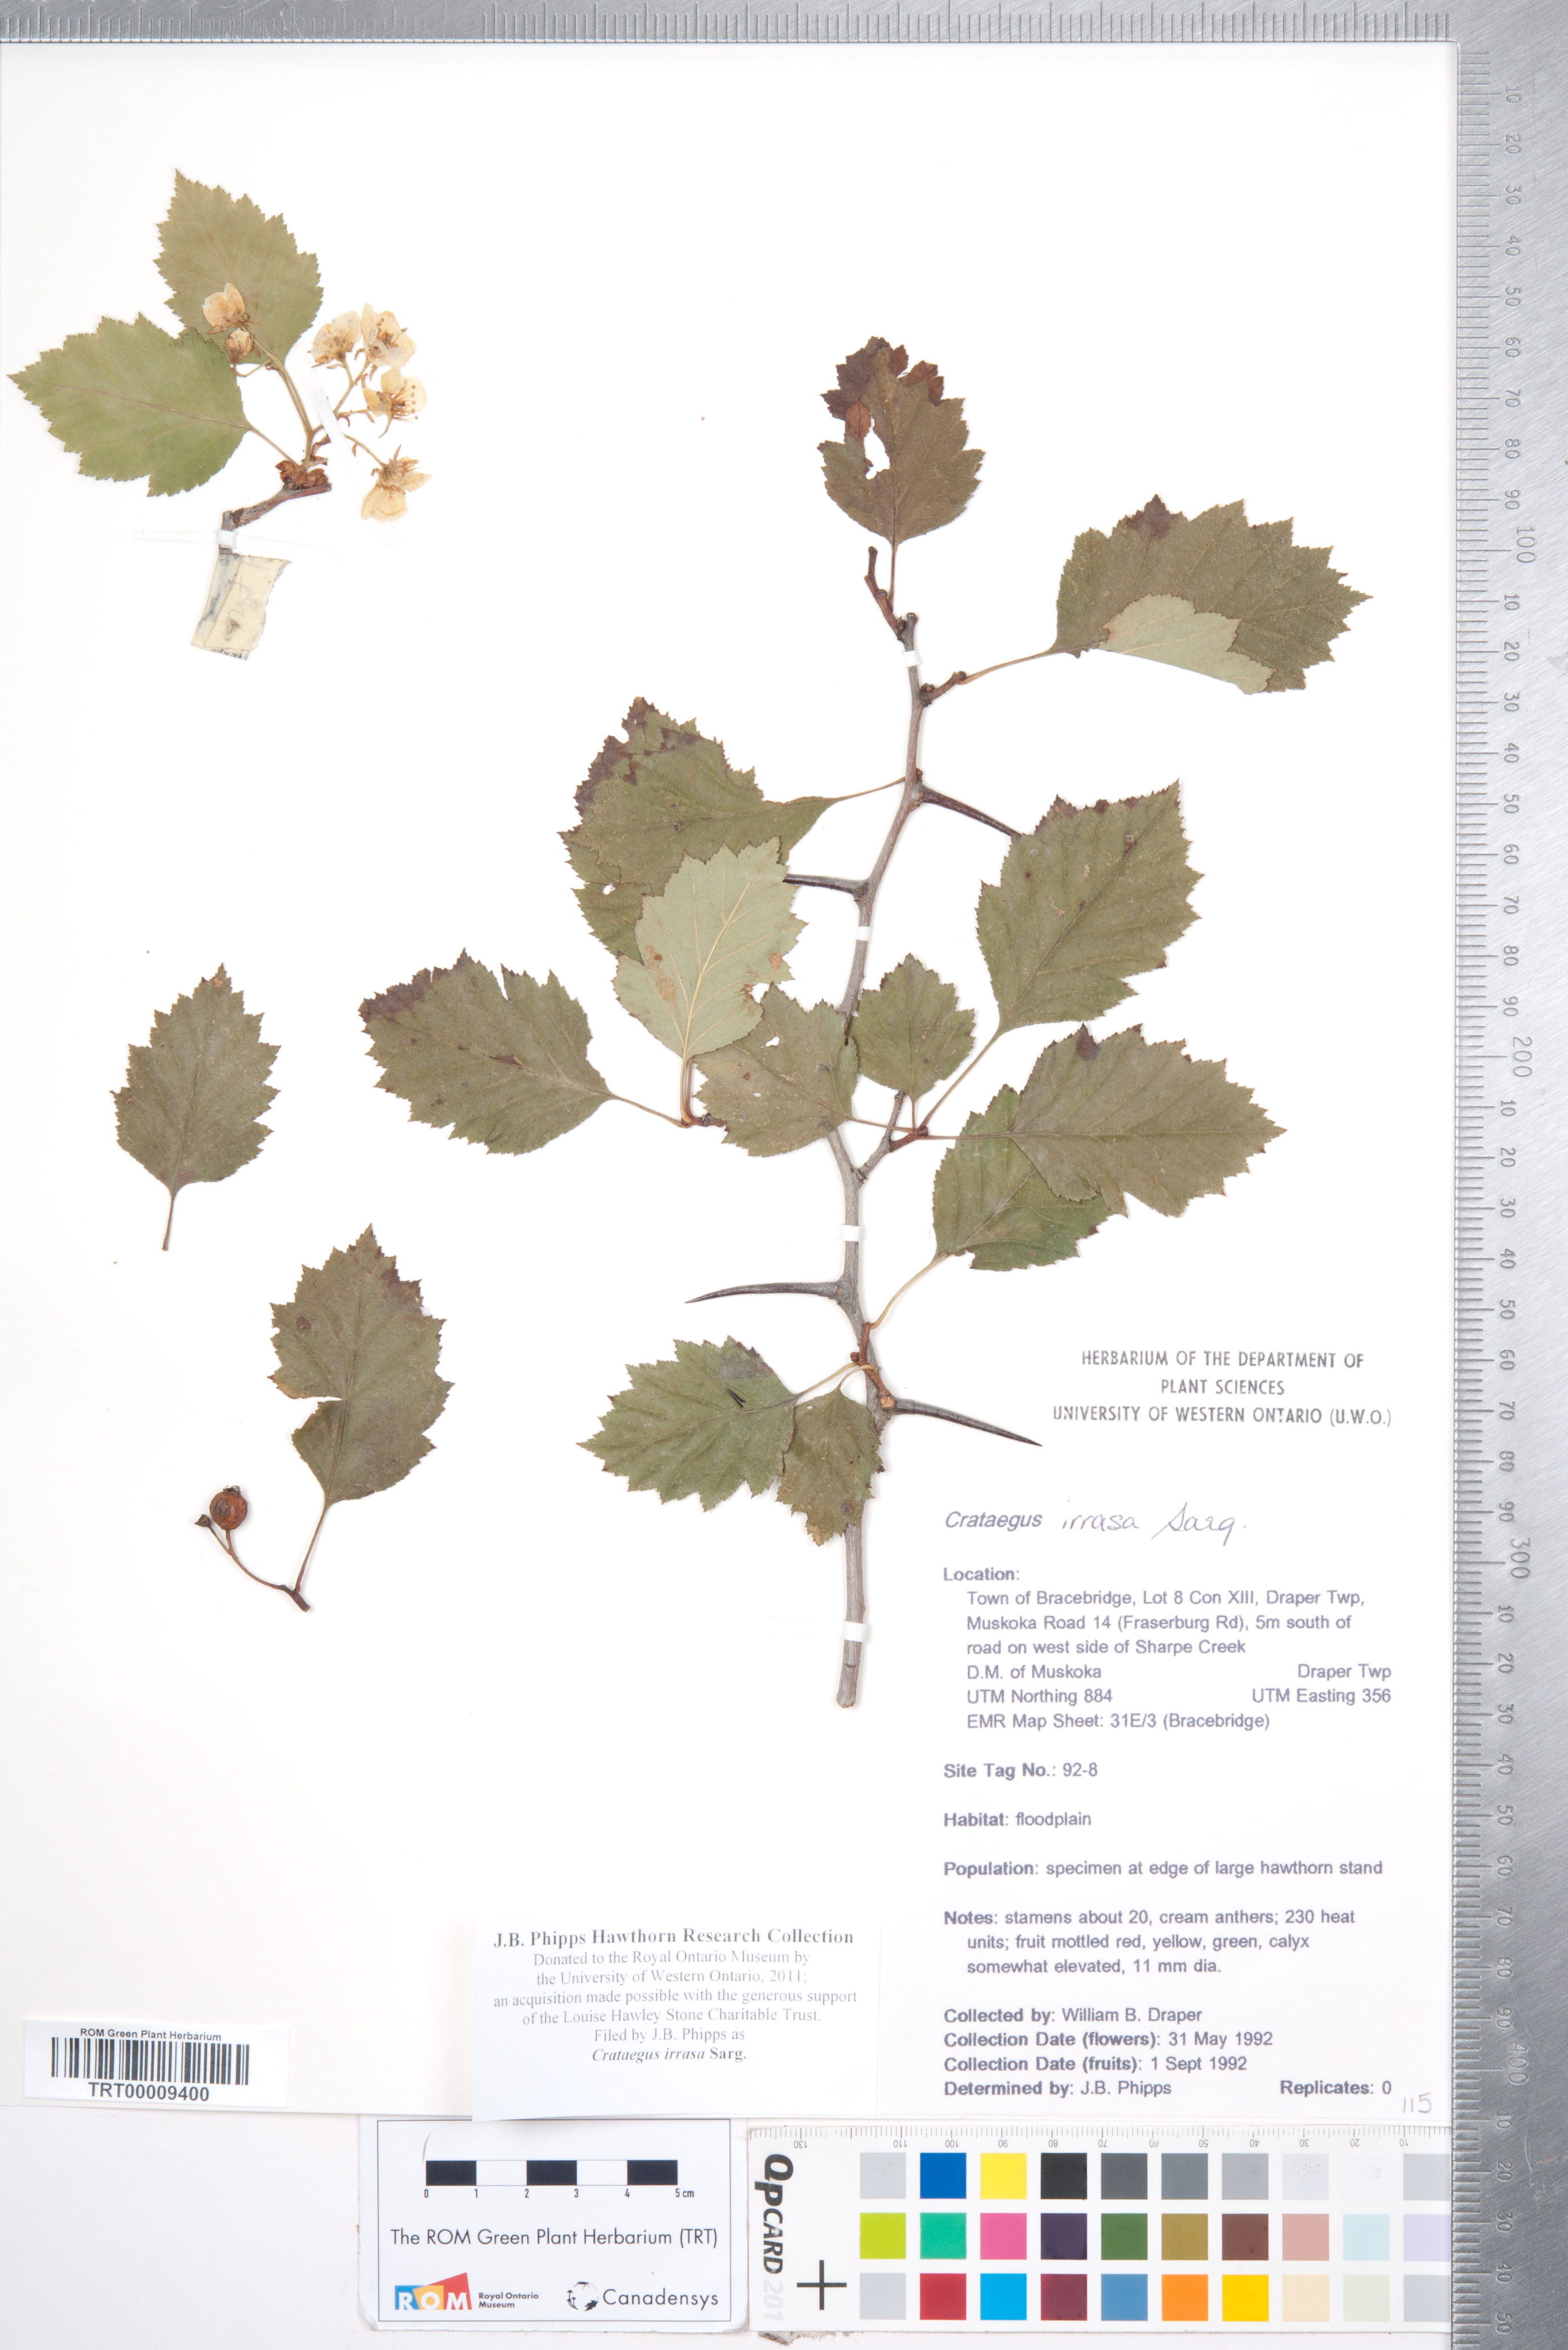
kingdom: Plantae
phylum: Tracheophyta
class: Magnoliopsida
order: Rosales
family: Rosaceae
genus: Crataegus
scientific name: Crataegus irrasa
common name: Unshorn hawthorn
